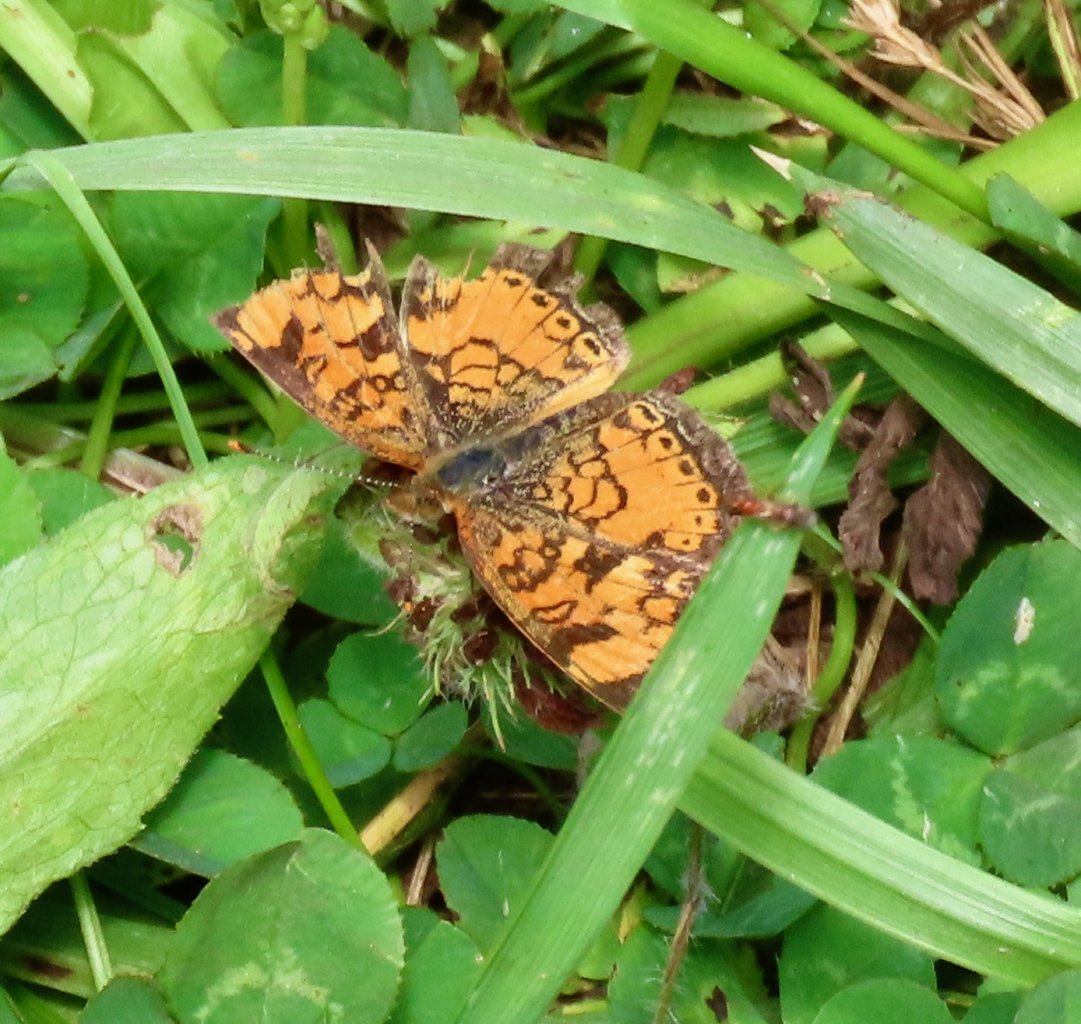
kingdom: Animalia
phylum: Arthropoda
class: Insecta
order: Lepidoptera
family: Nymphalidae
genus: Phyciodes
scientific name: Phyciodes tharos
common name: Pearl Crescent
